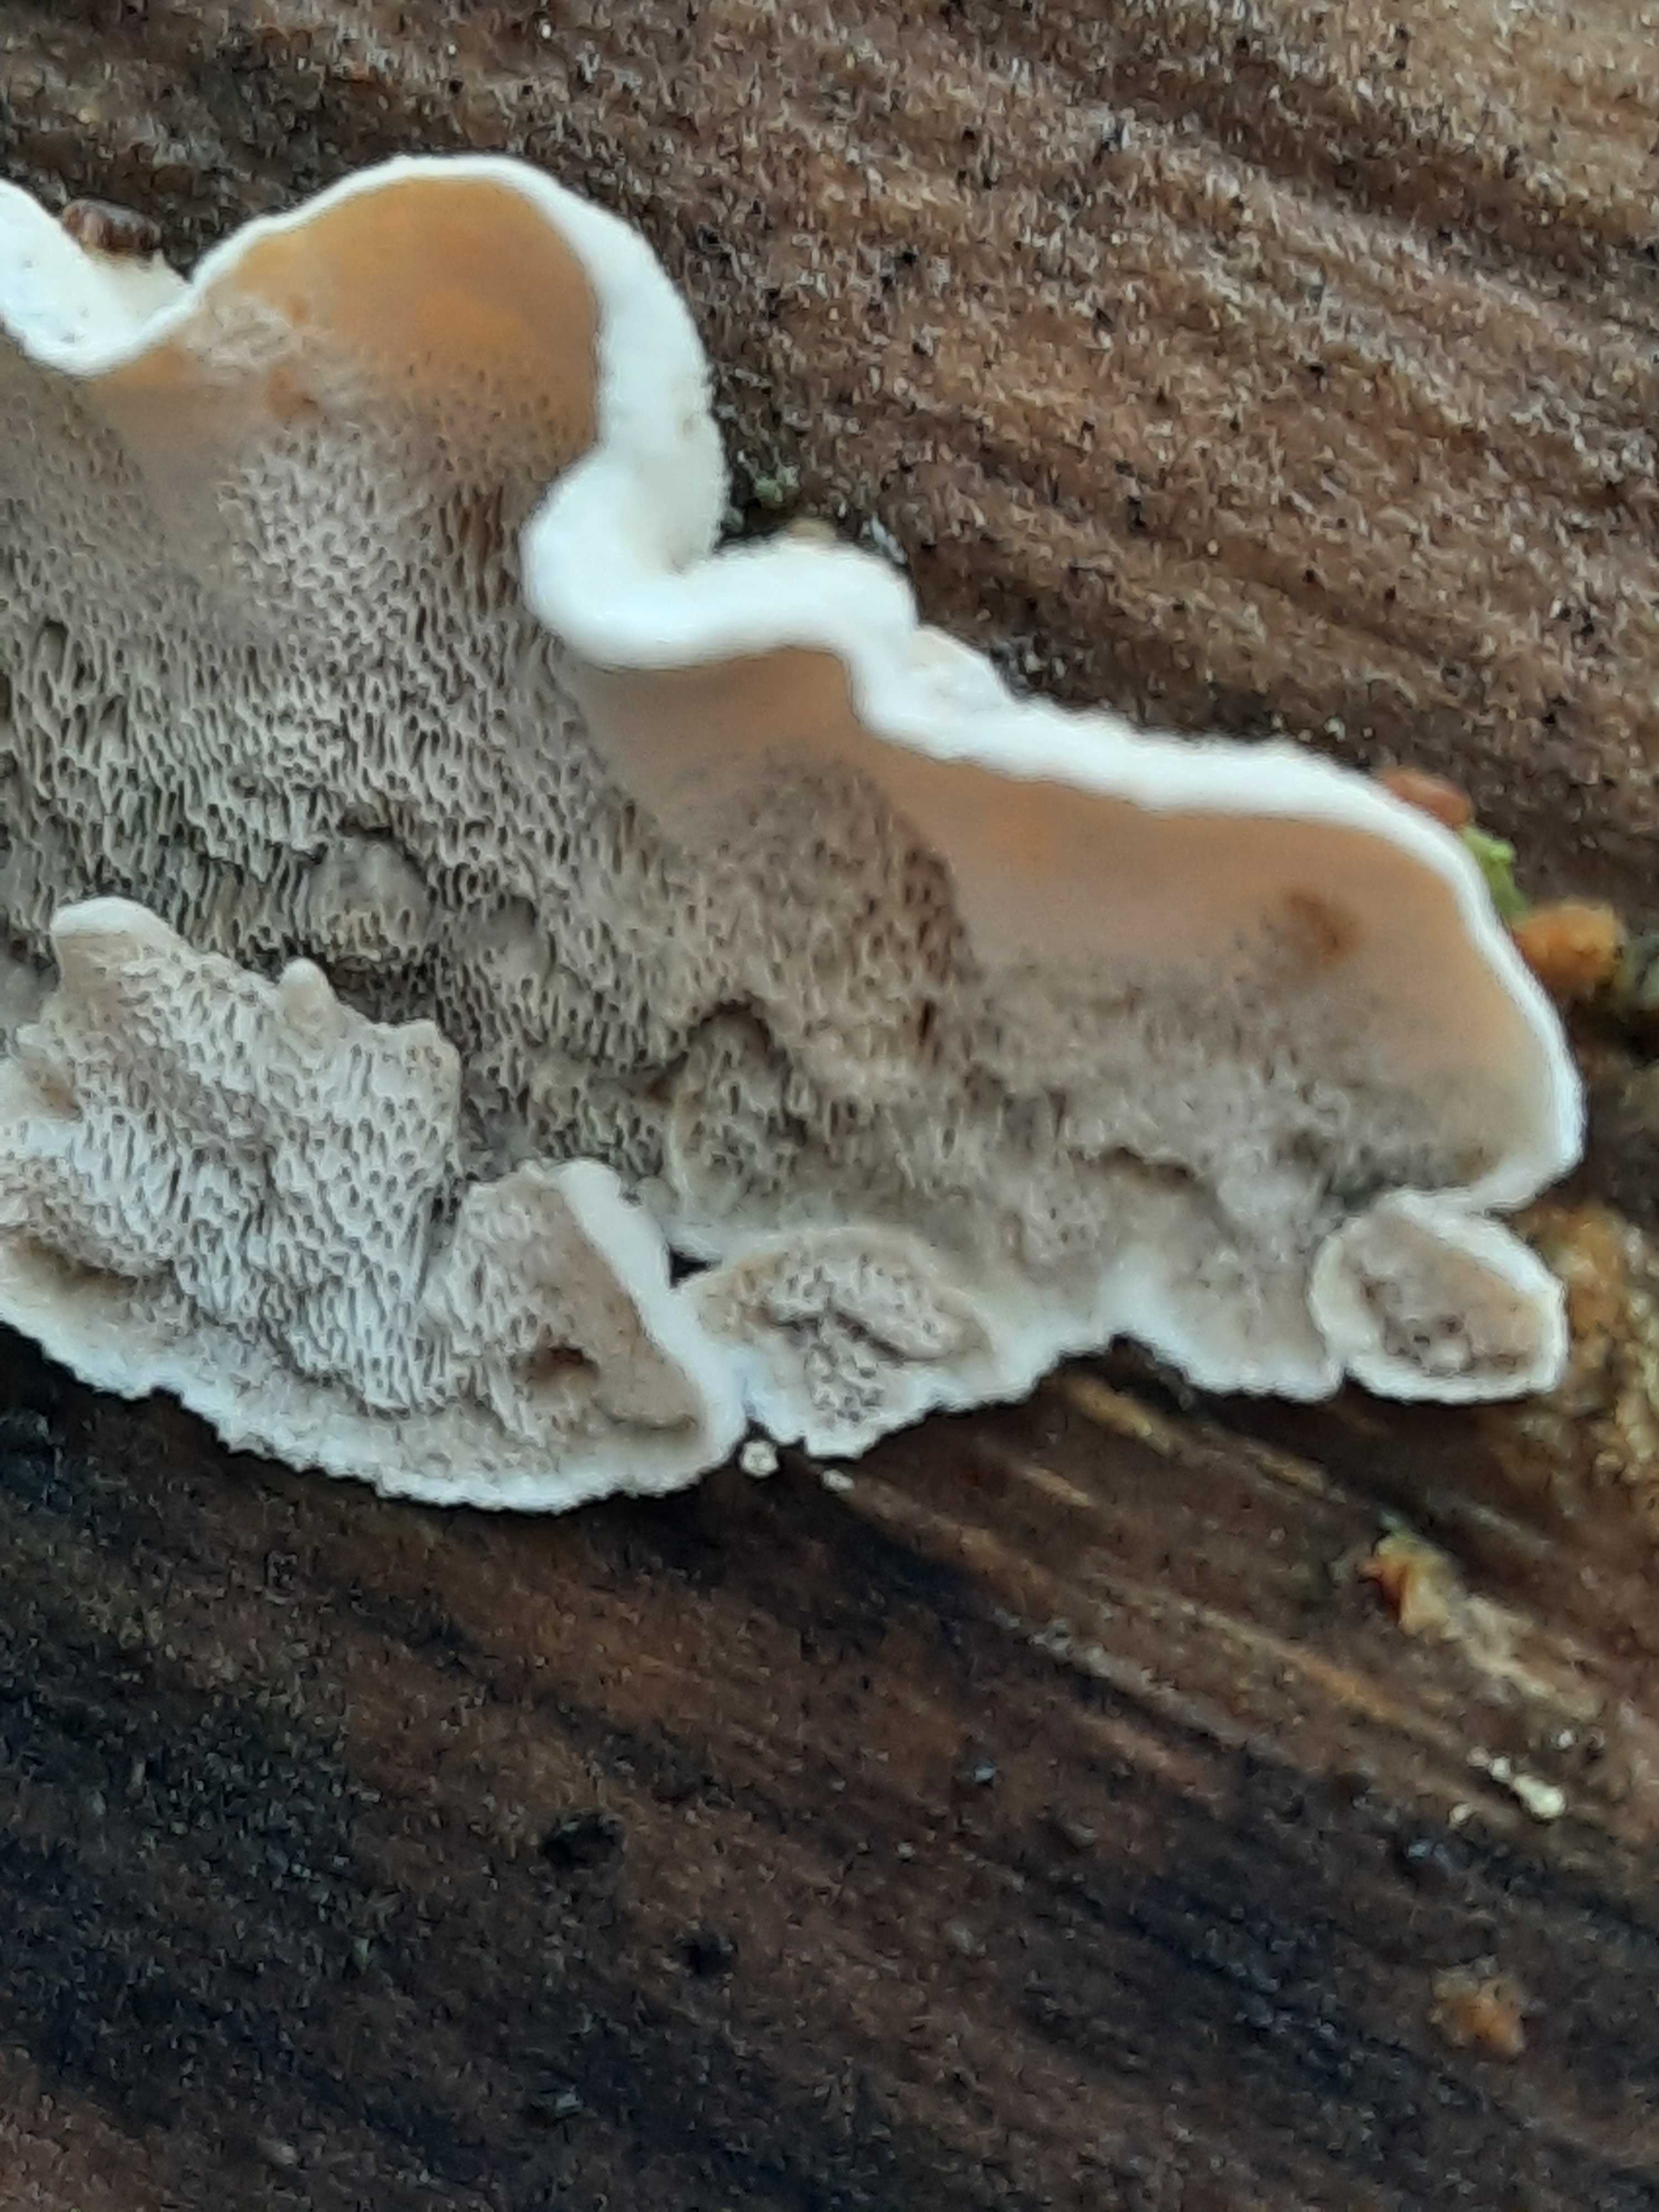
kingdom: Fungi
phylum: Basidiomycota
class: Agaricomycetes
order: Polyporales
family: Incrustoporiaceae
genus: Skeletocutis
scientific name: Skeletocutis carneogrisea
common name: rødgrå krystalporesvamp
